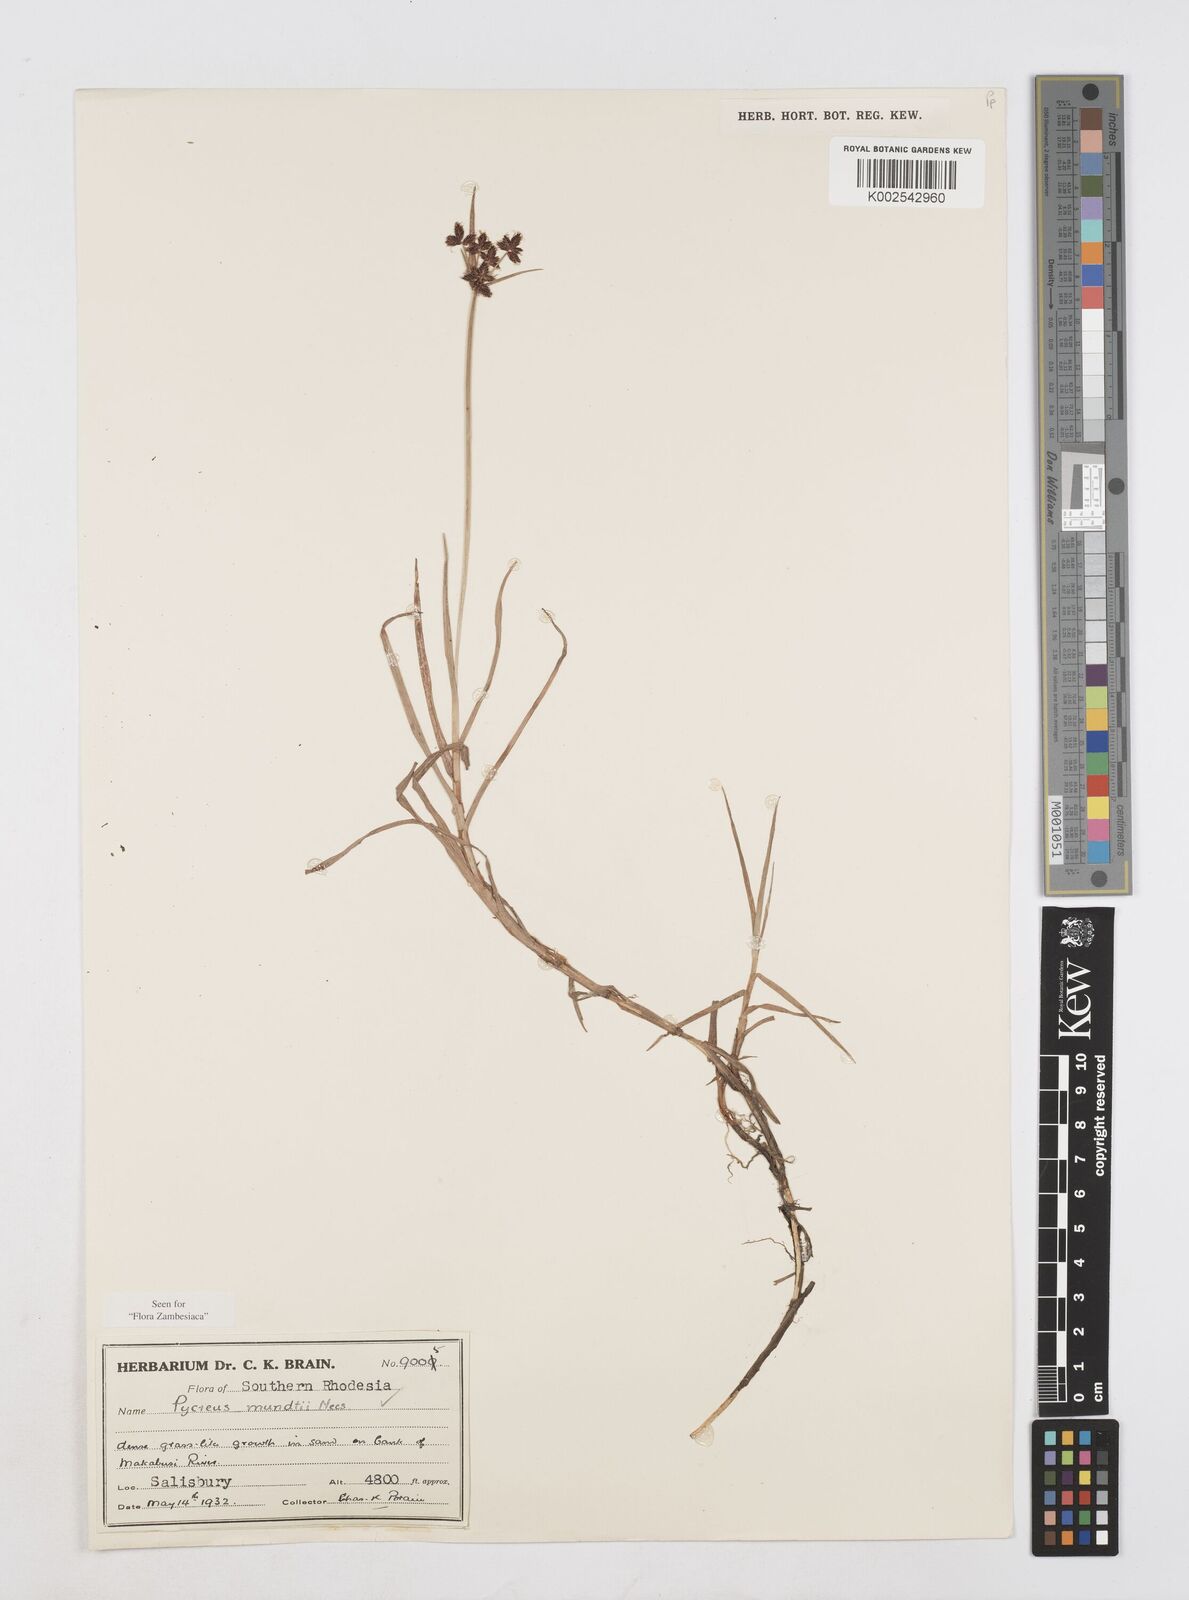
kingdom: Plantae
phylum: Tracheophyta
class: Liliopsida
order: Poales
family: Cyperaceae
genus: Cyperus
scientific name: Cyperus mundii
